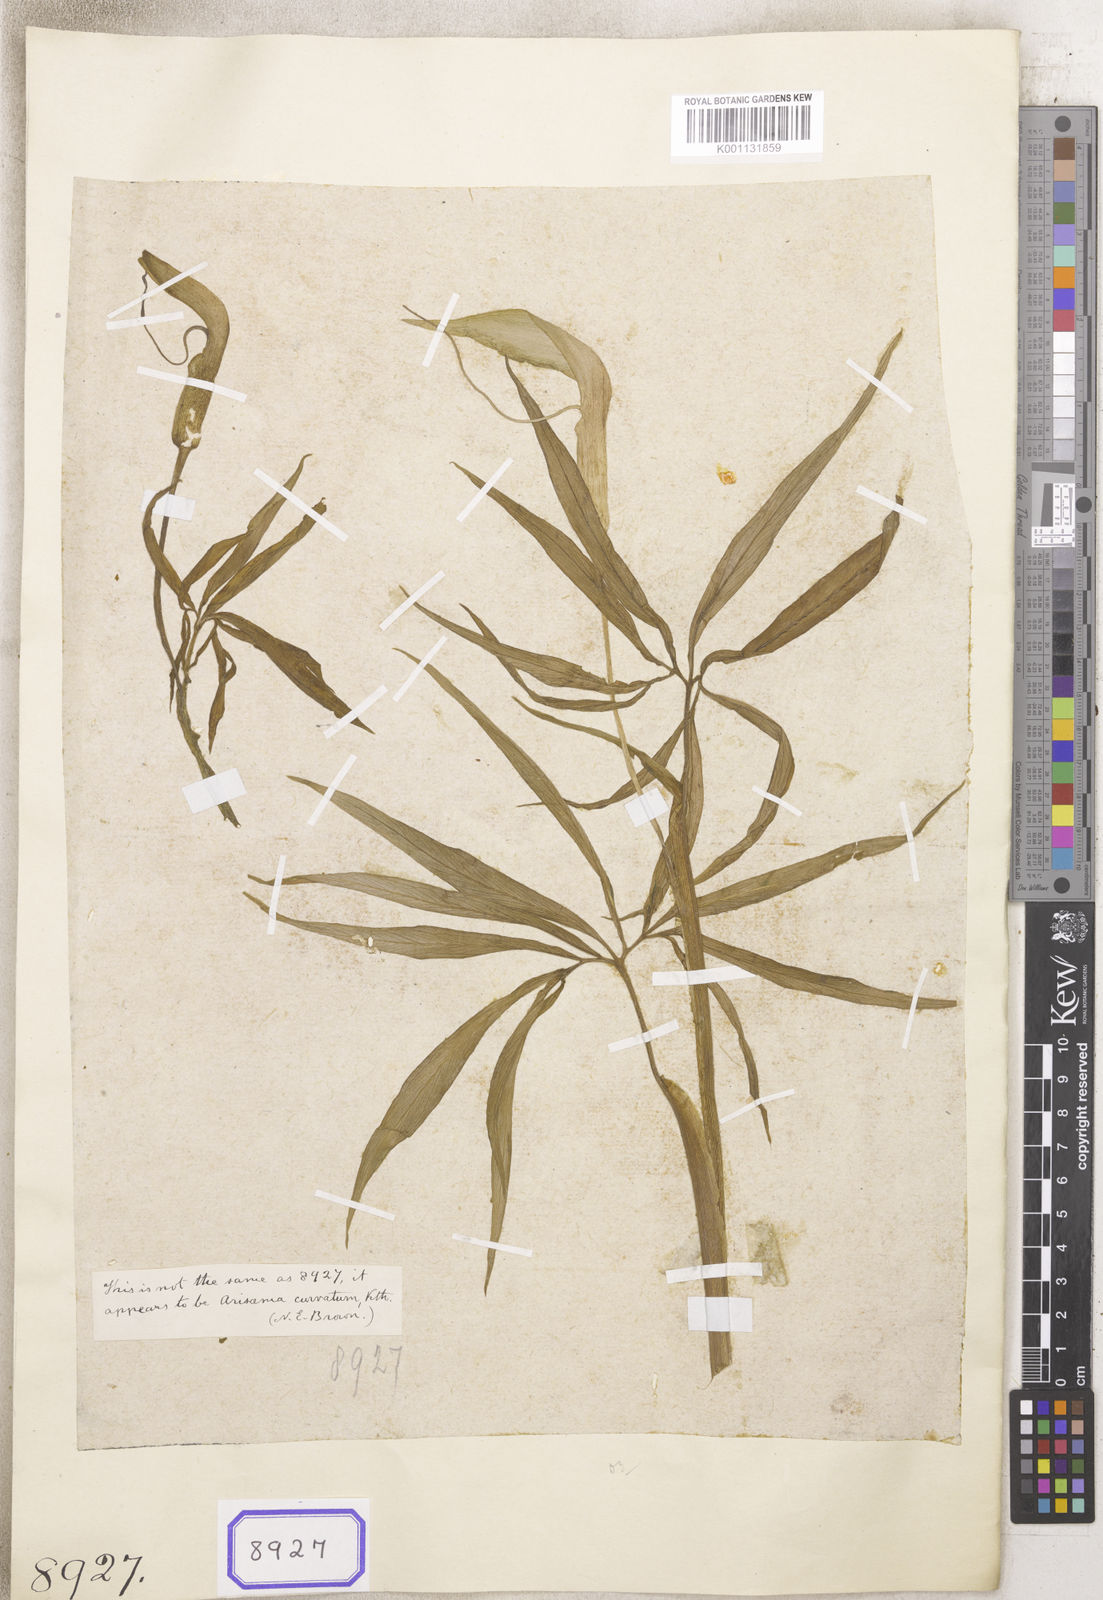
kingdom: Plantae
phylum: Tracheophyta
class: Liliopsida
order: Alismatales
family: Araceae
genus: Arisaema
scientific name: Arisaema
